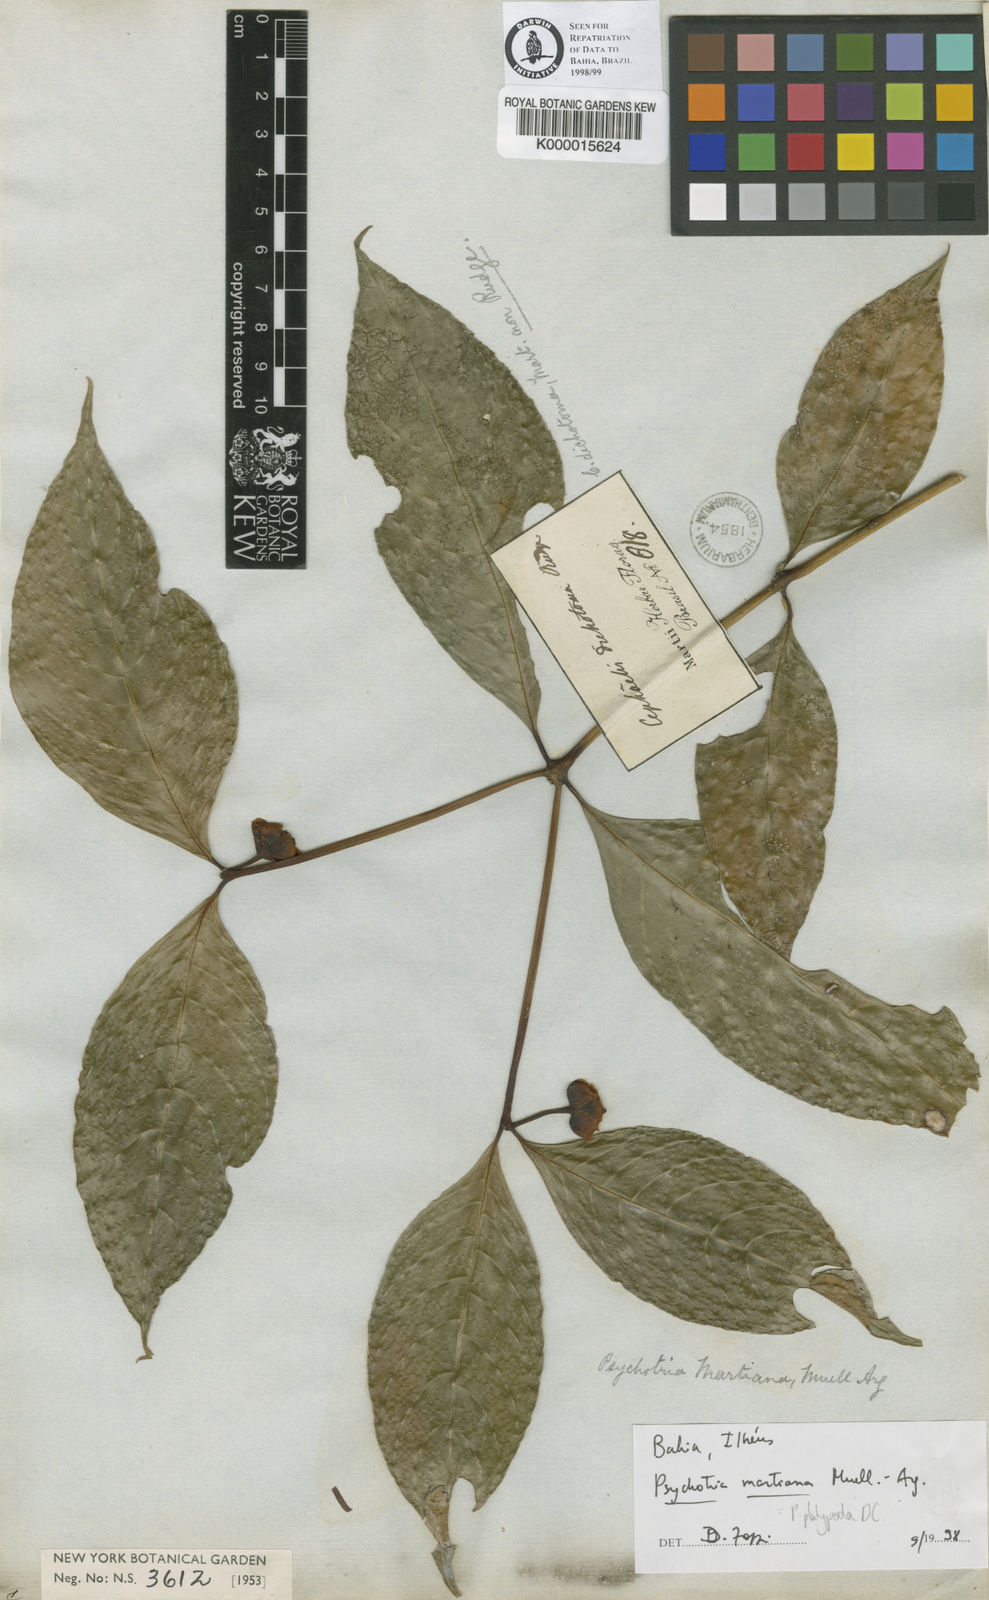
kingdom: Plantae
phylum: Tracheophyta
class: Magnoliopsida
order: Gentianales
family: Rubiaceae
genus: Palicourea
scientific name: Palicourea dichotoma
